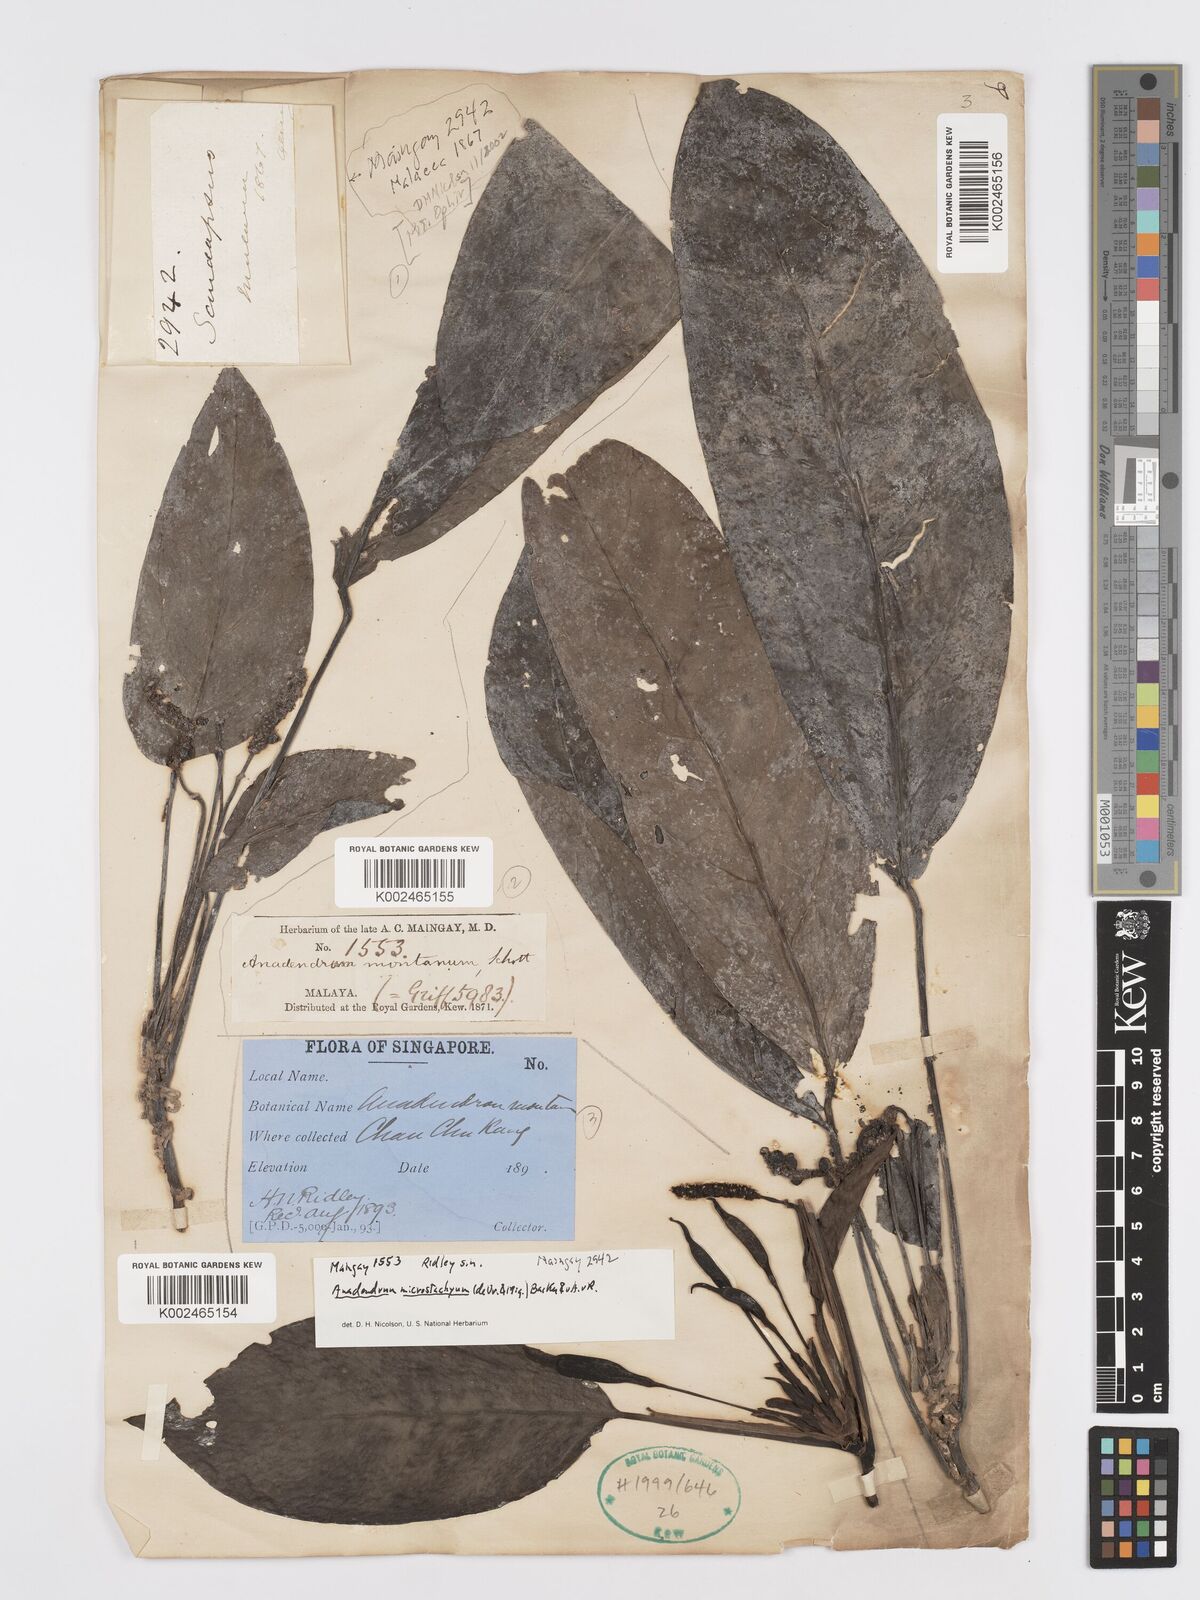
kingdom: Plantae
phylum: Tracheophyta
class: Liliopsida
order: Alismatales
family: Araceae
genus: Anadendrum
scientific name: Anadendrum microstachyum
